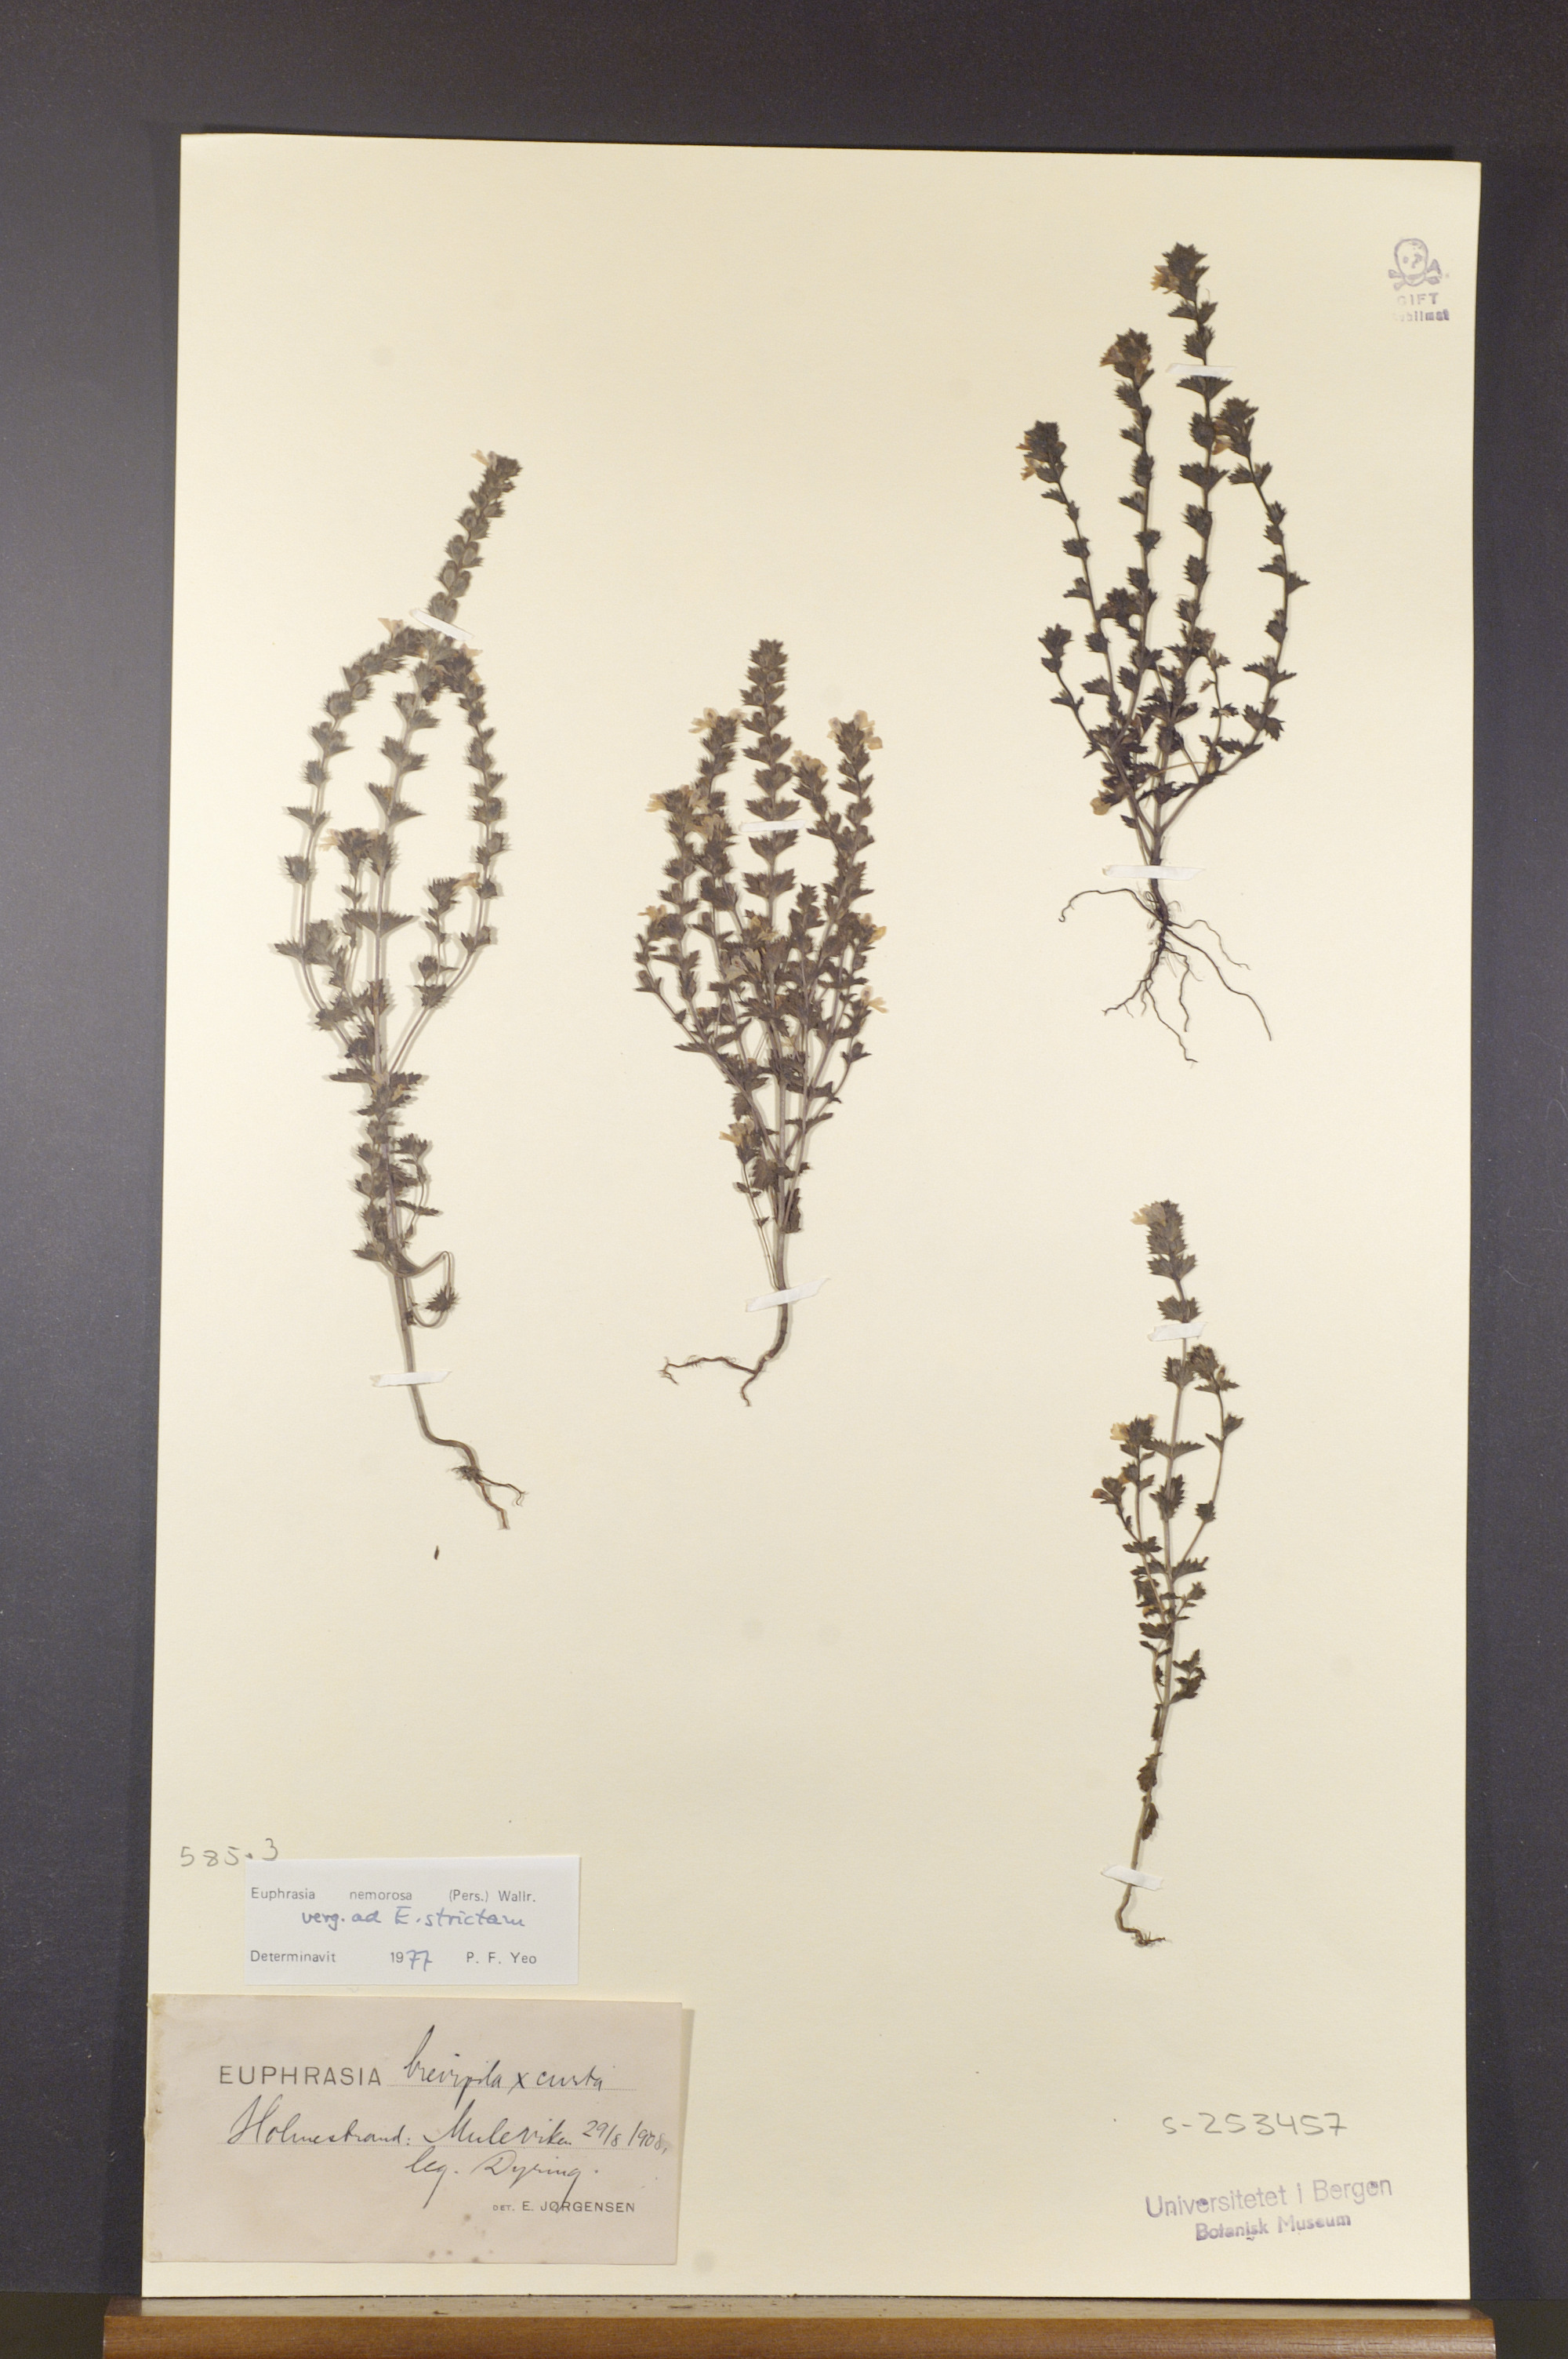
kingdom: Plantae
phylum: Tracheophyta
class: Magnoliopsida
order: Lamiales
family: Orobanchaceae
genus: Euphrasia
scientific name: Euphrasia nemorosa
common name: Common eyebright
